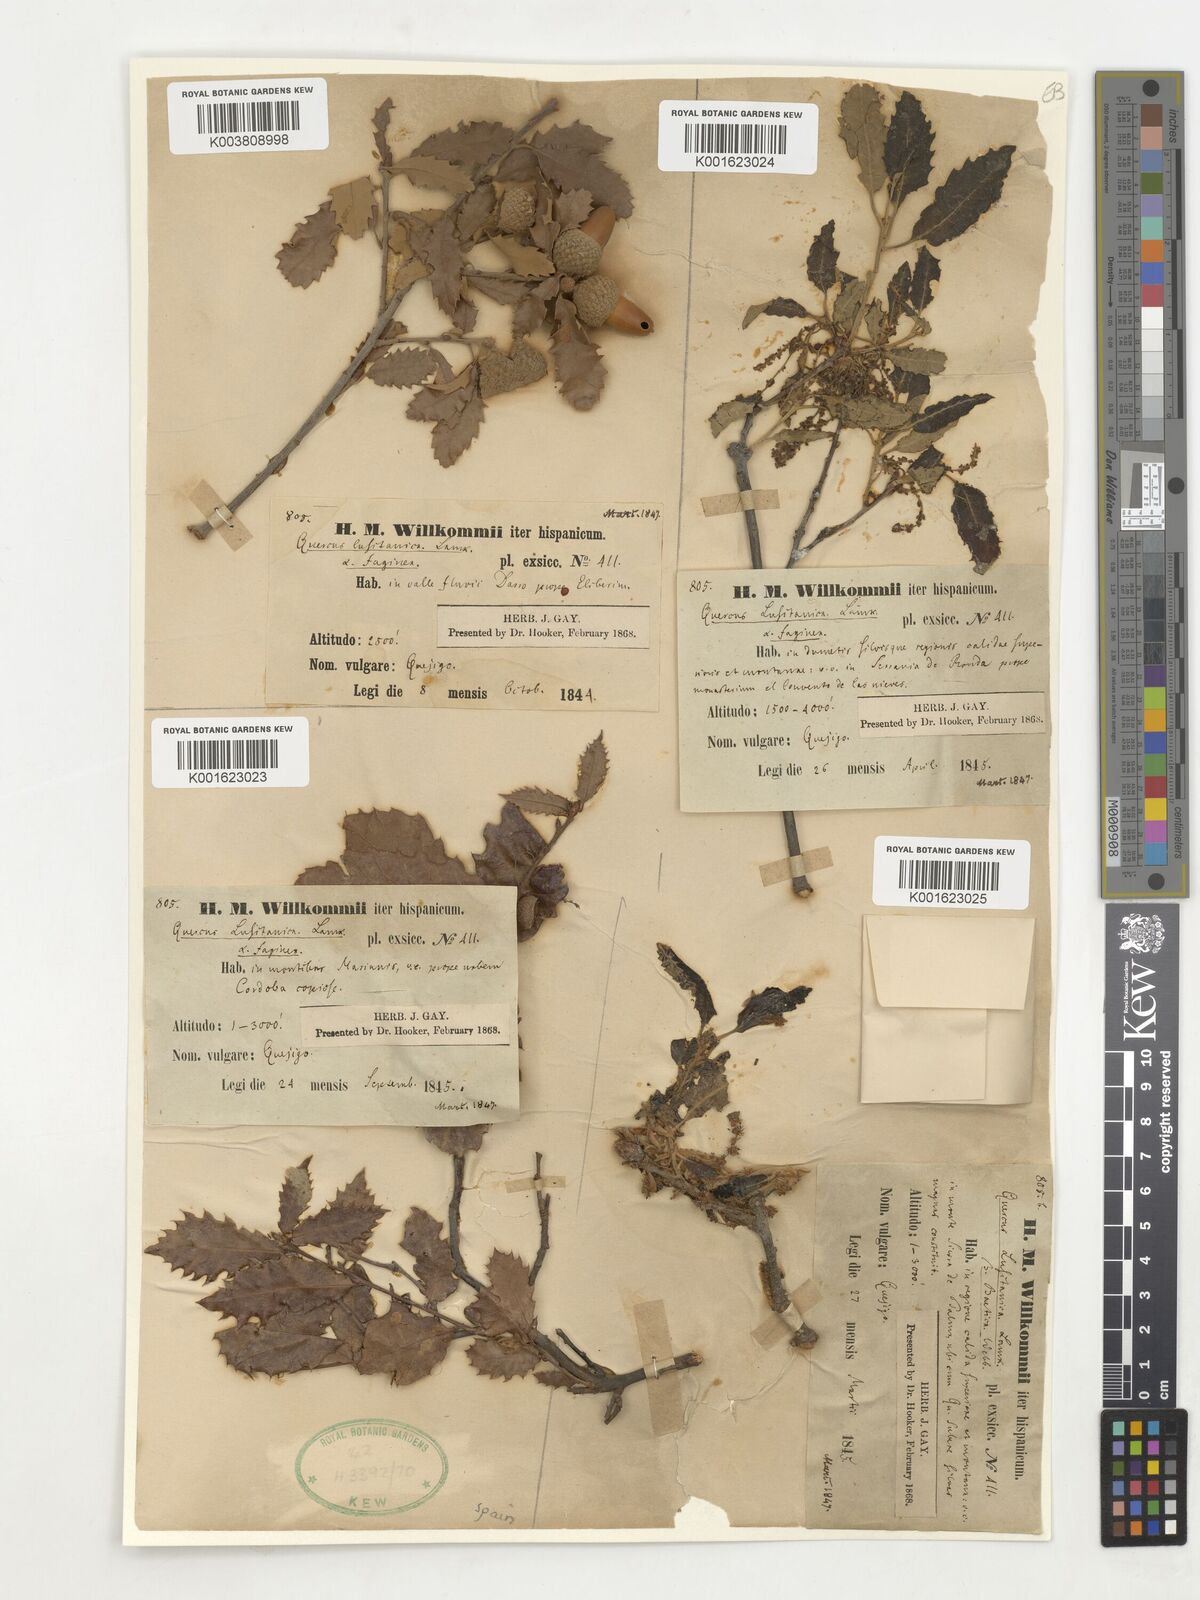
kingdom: Plantae
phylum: Tracheophyta
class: Magnoliopsida
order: Fagales
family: Fagaceae
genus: Quercus
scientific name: Quercus faginea
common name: Gall oak tree
